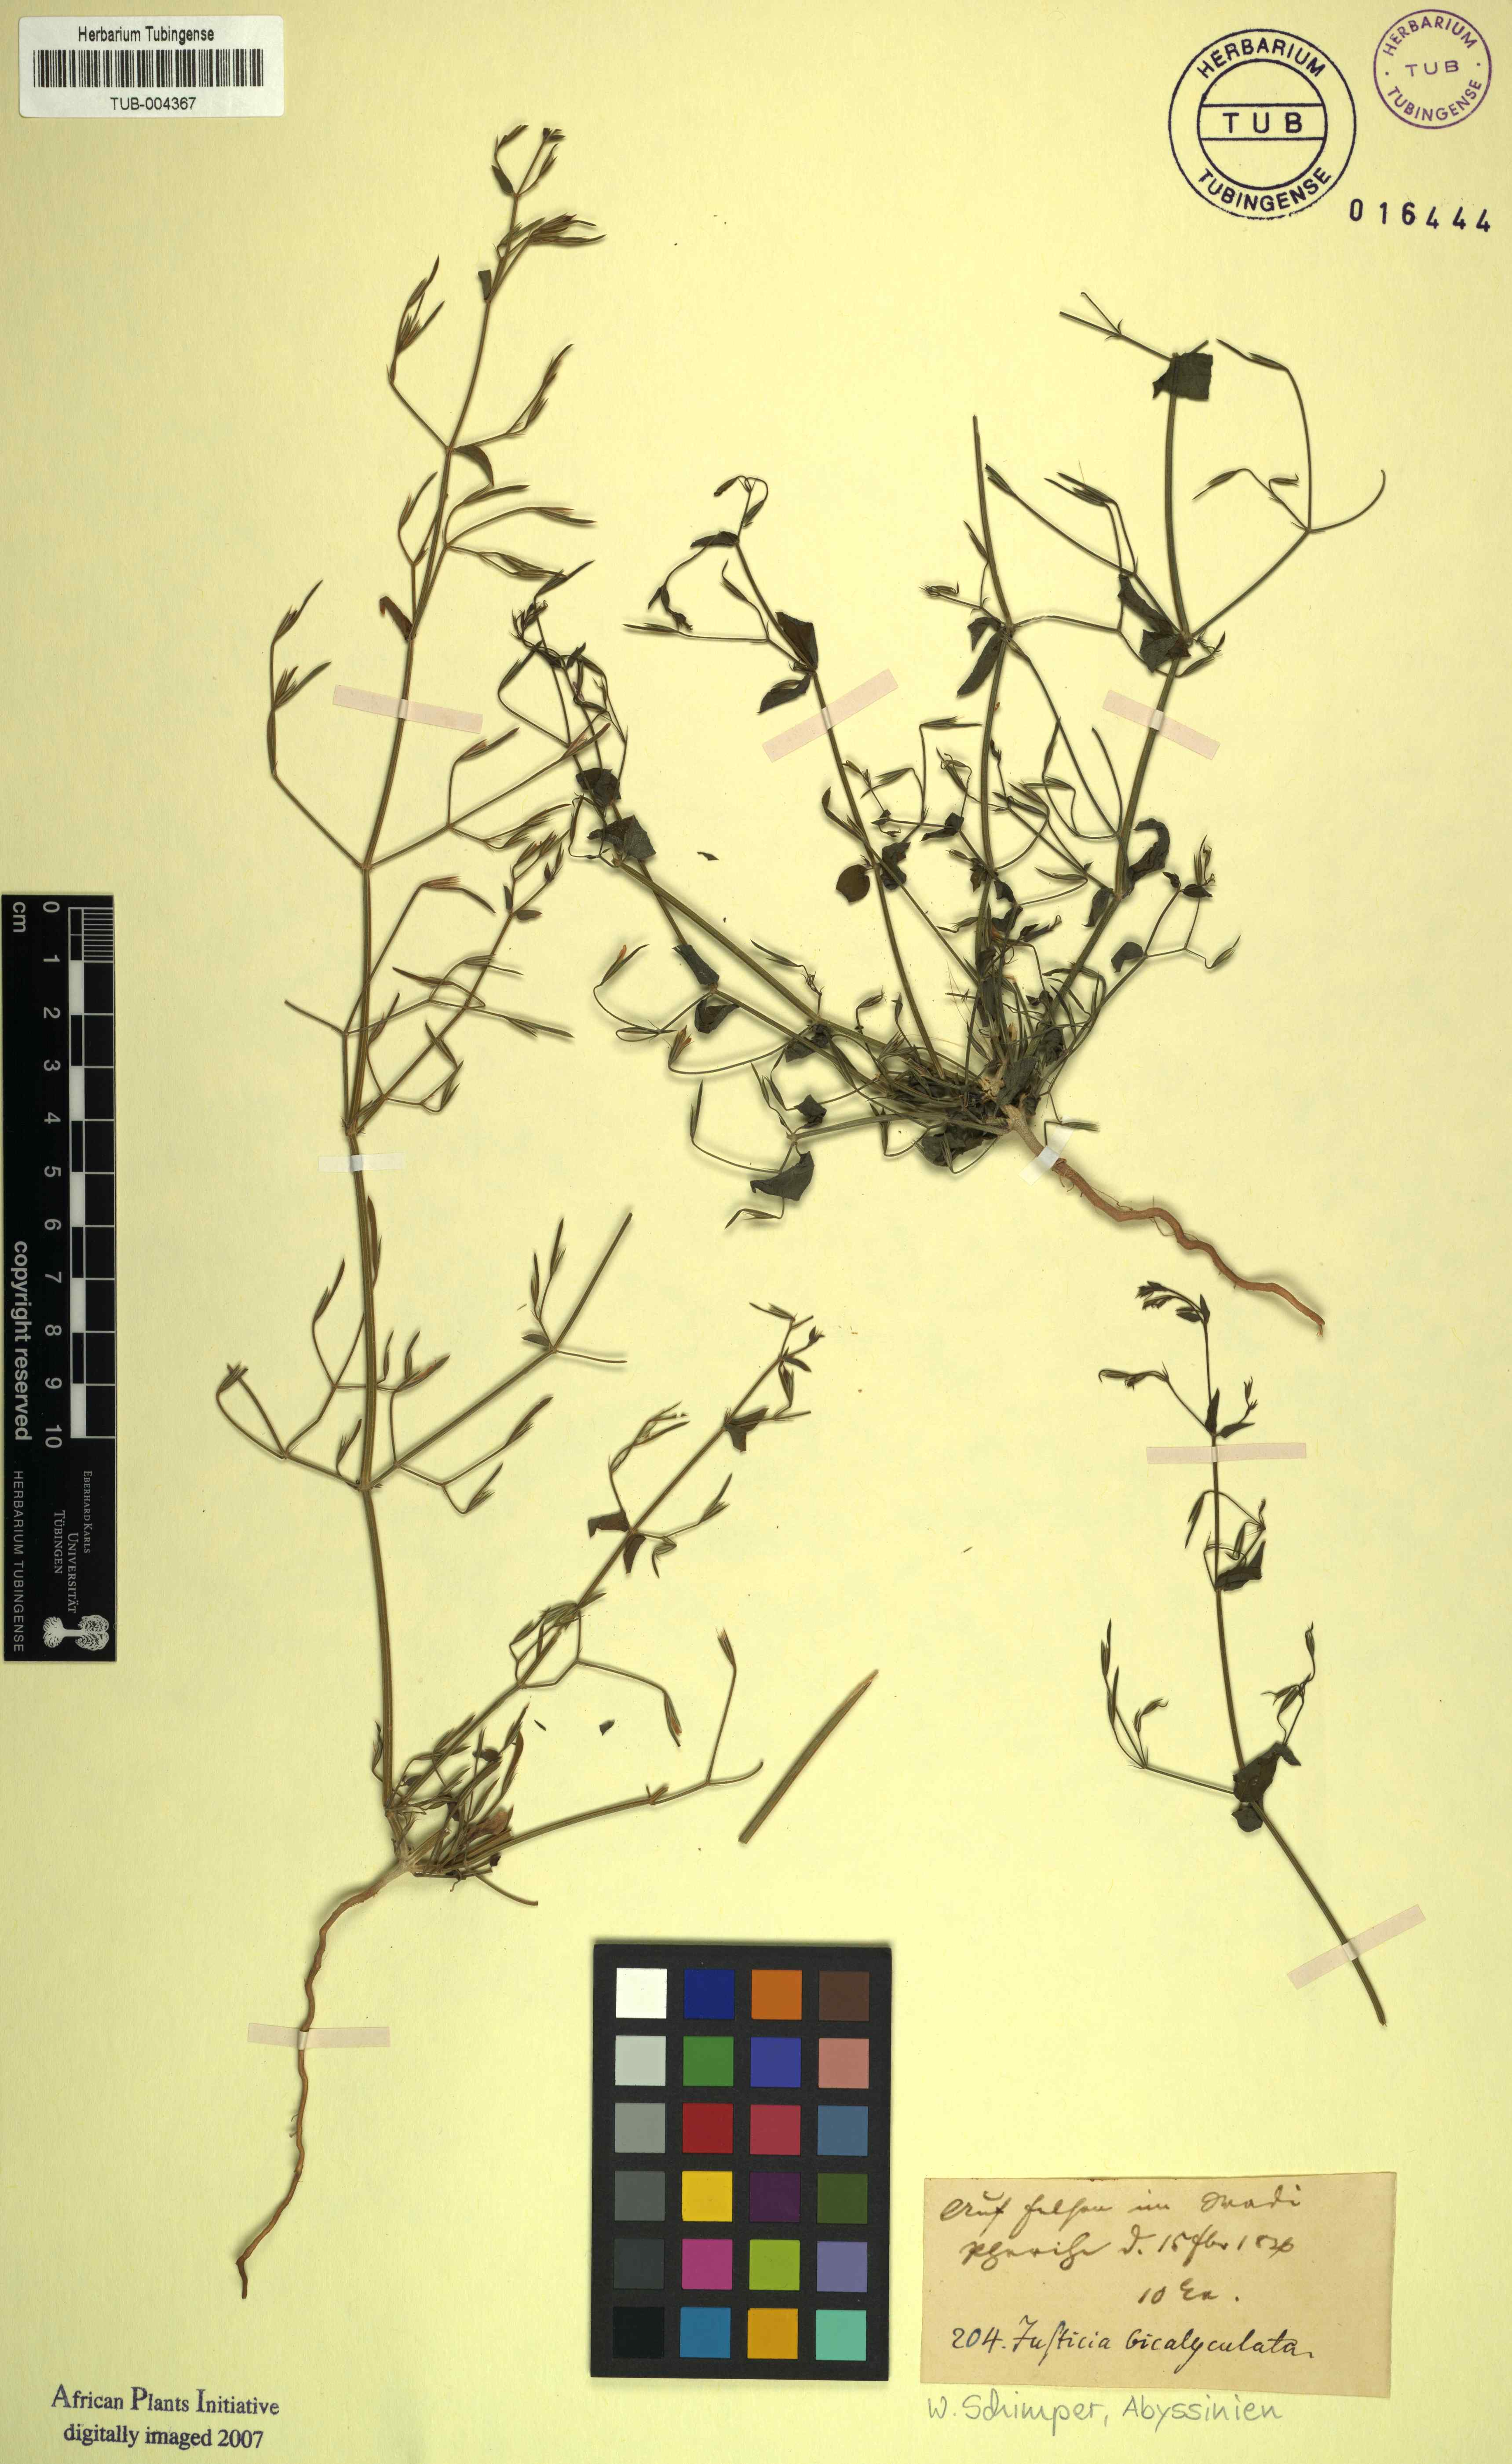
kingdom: Plantae
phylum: Tracheophyta
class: Magnoliopsida
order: Lamiales
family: Acanthaceae
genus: Dicliptera
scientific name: Dicliptera paniculata
